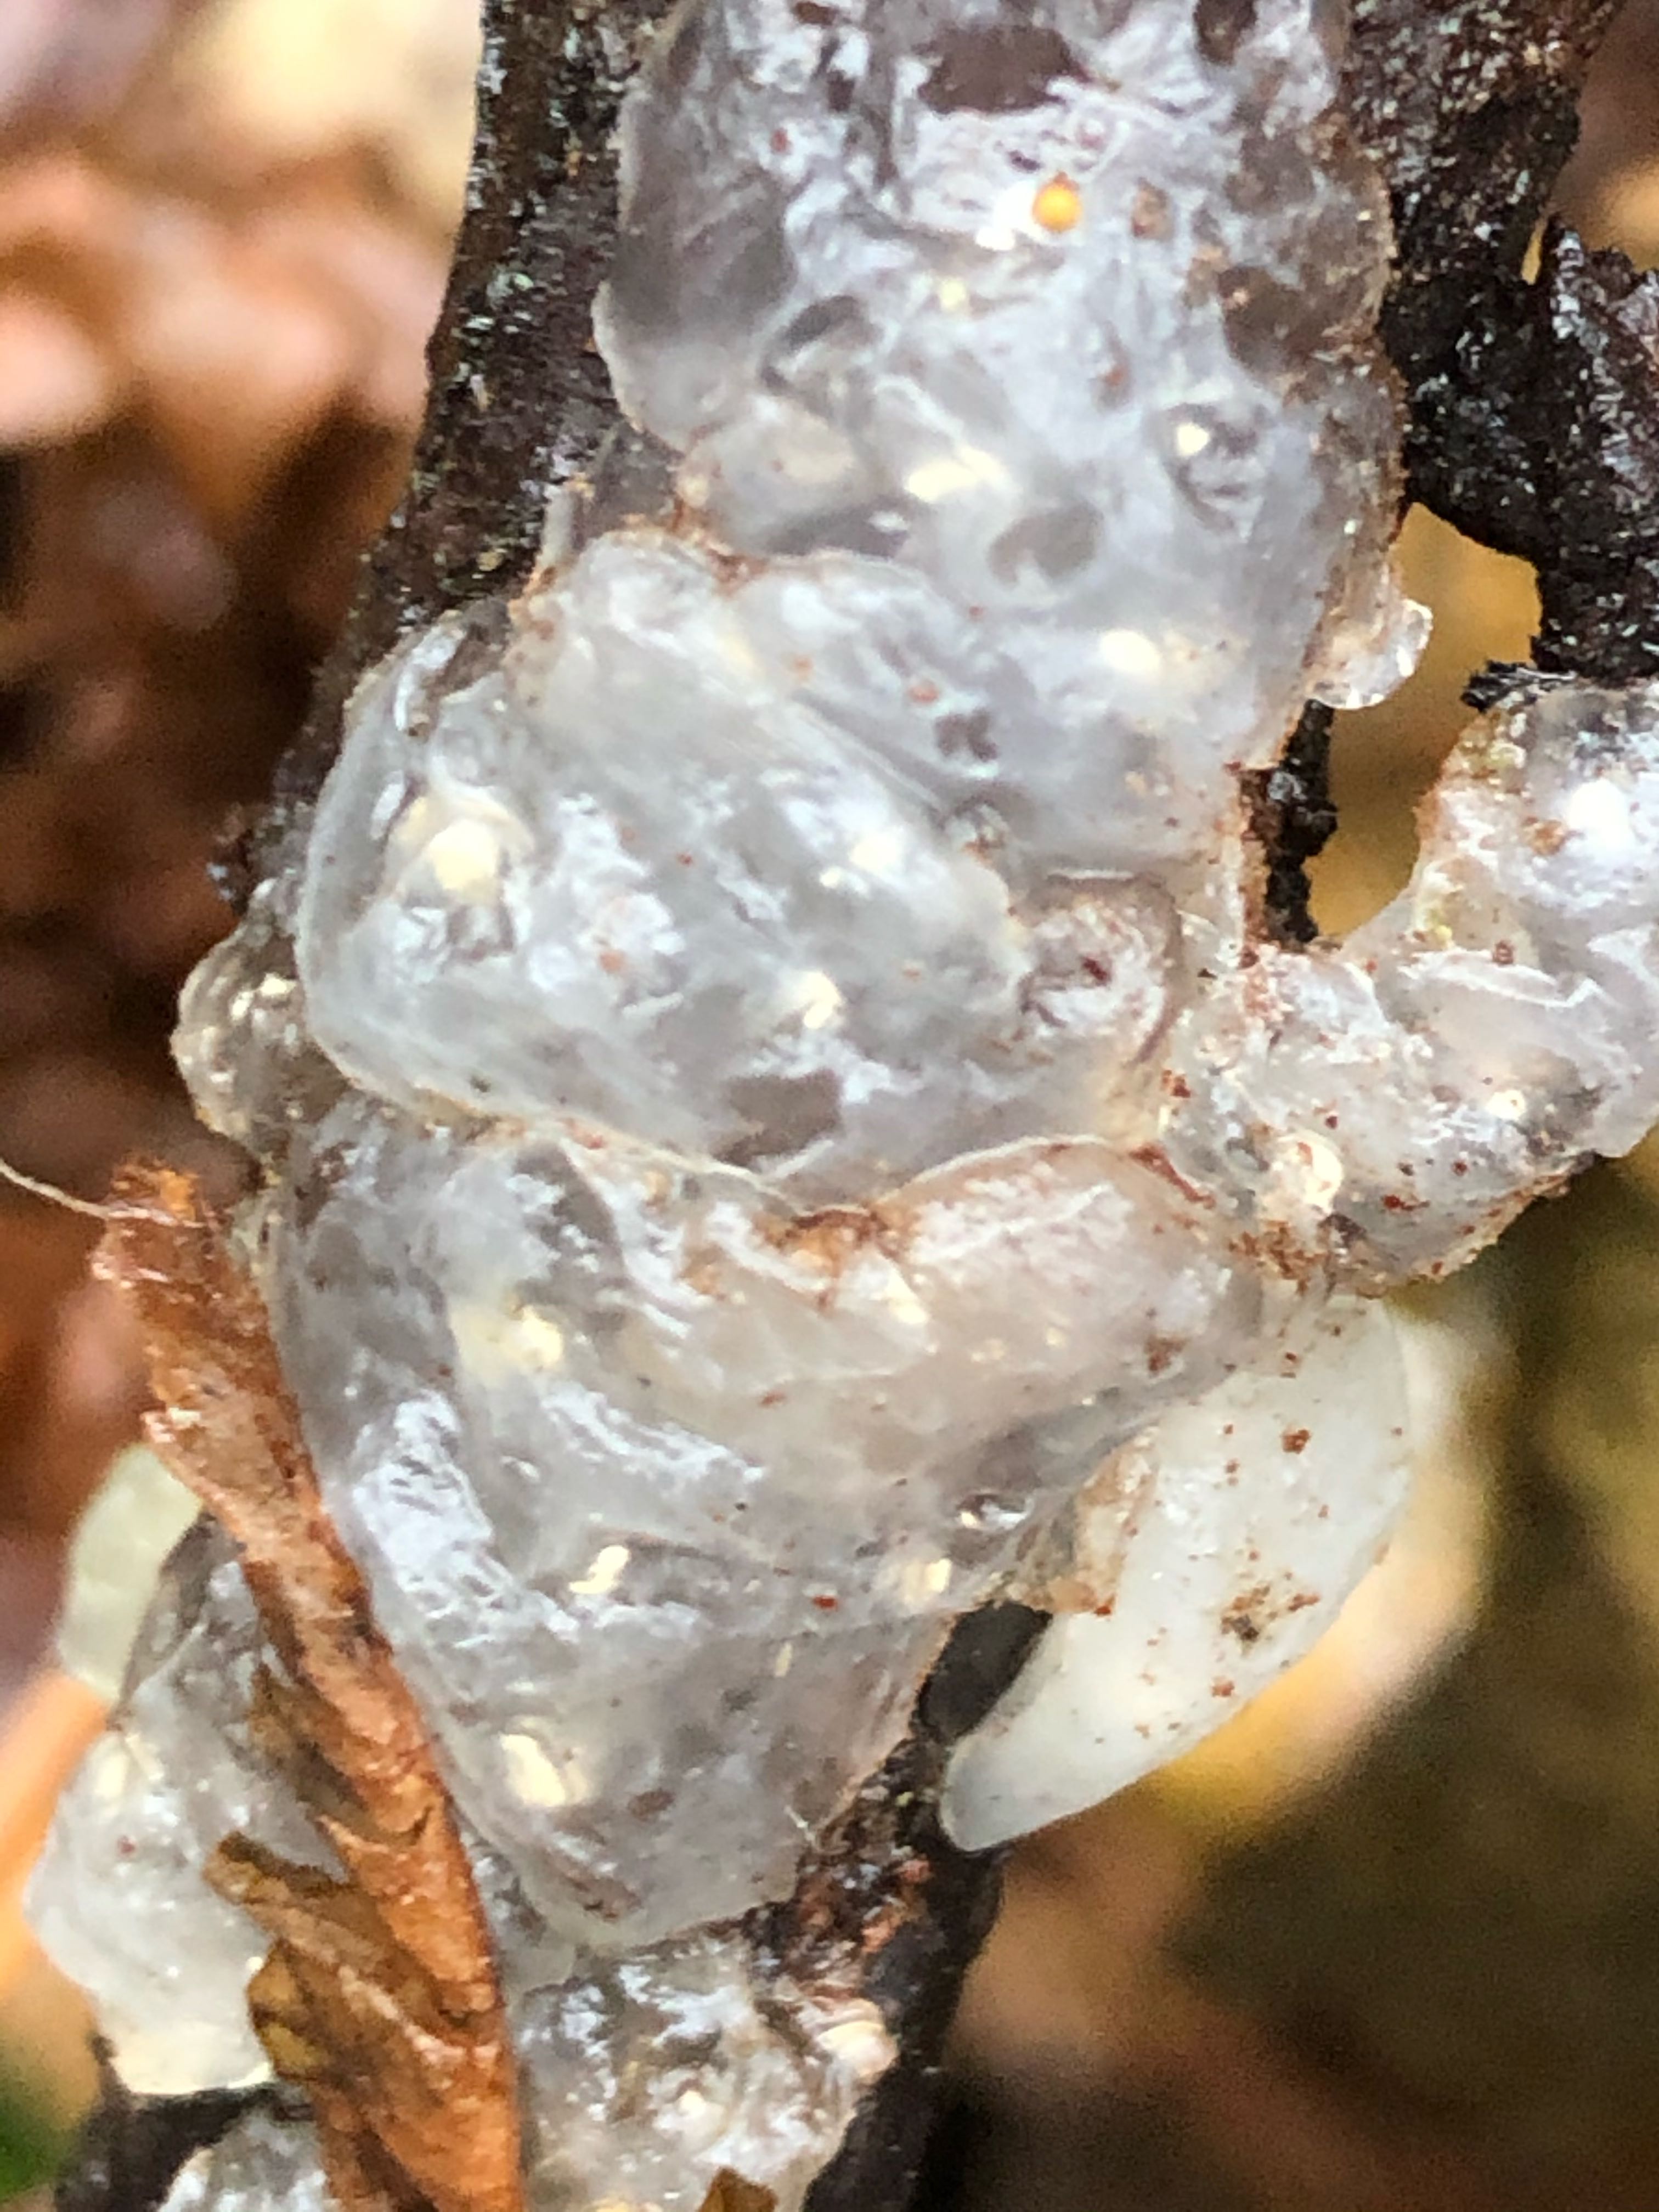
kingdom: Fungi
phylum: Basidiomycota
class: Agaricomycetes
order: Auriculariales
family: Hyaloriaceae
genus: Myxarium
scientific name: Myxarium nucleatum
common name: klar bævretop
